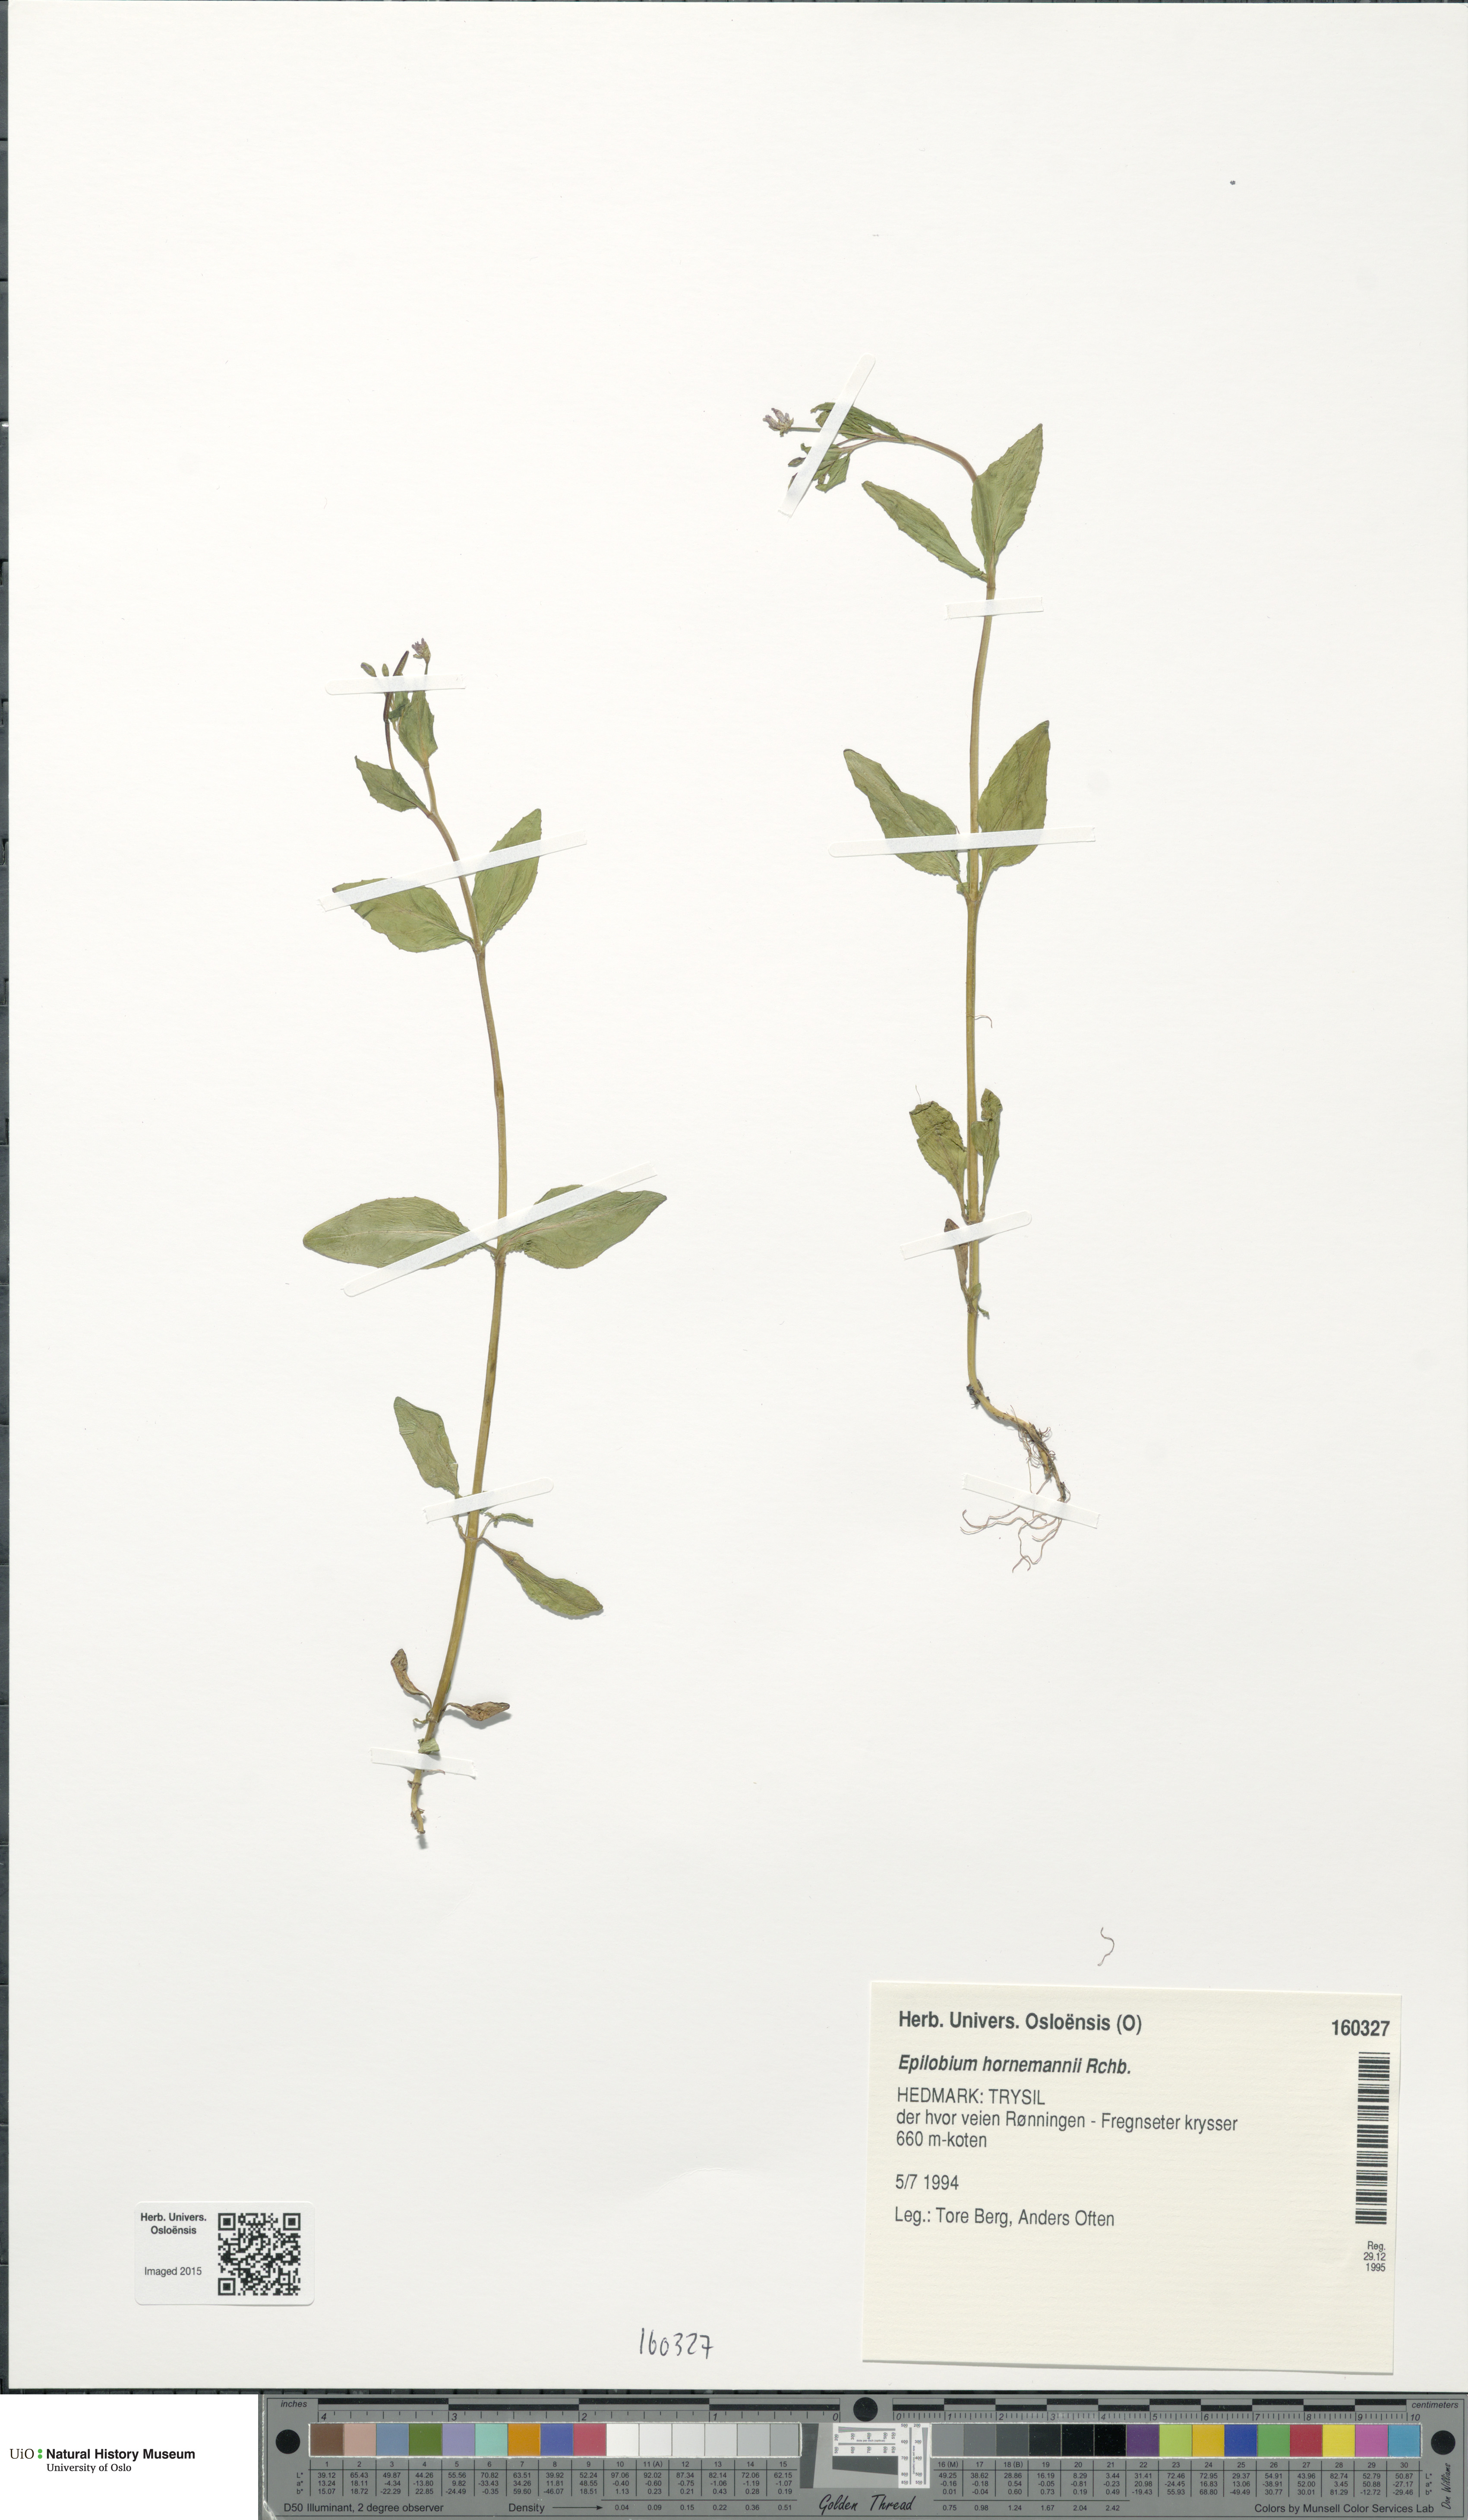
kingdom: Plantae
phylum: Tracheophyta
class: Magnoliopsida
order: Myrtales
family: Onagraceae
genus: Epilobium
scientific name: Epilobium hornemannii
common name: Hornemann's willowherb
